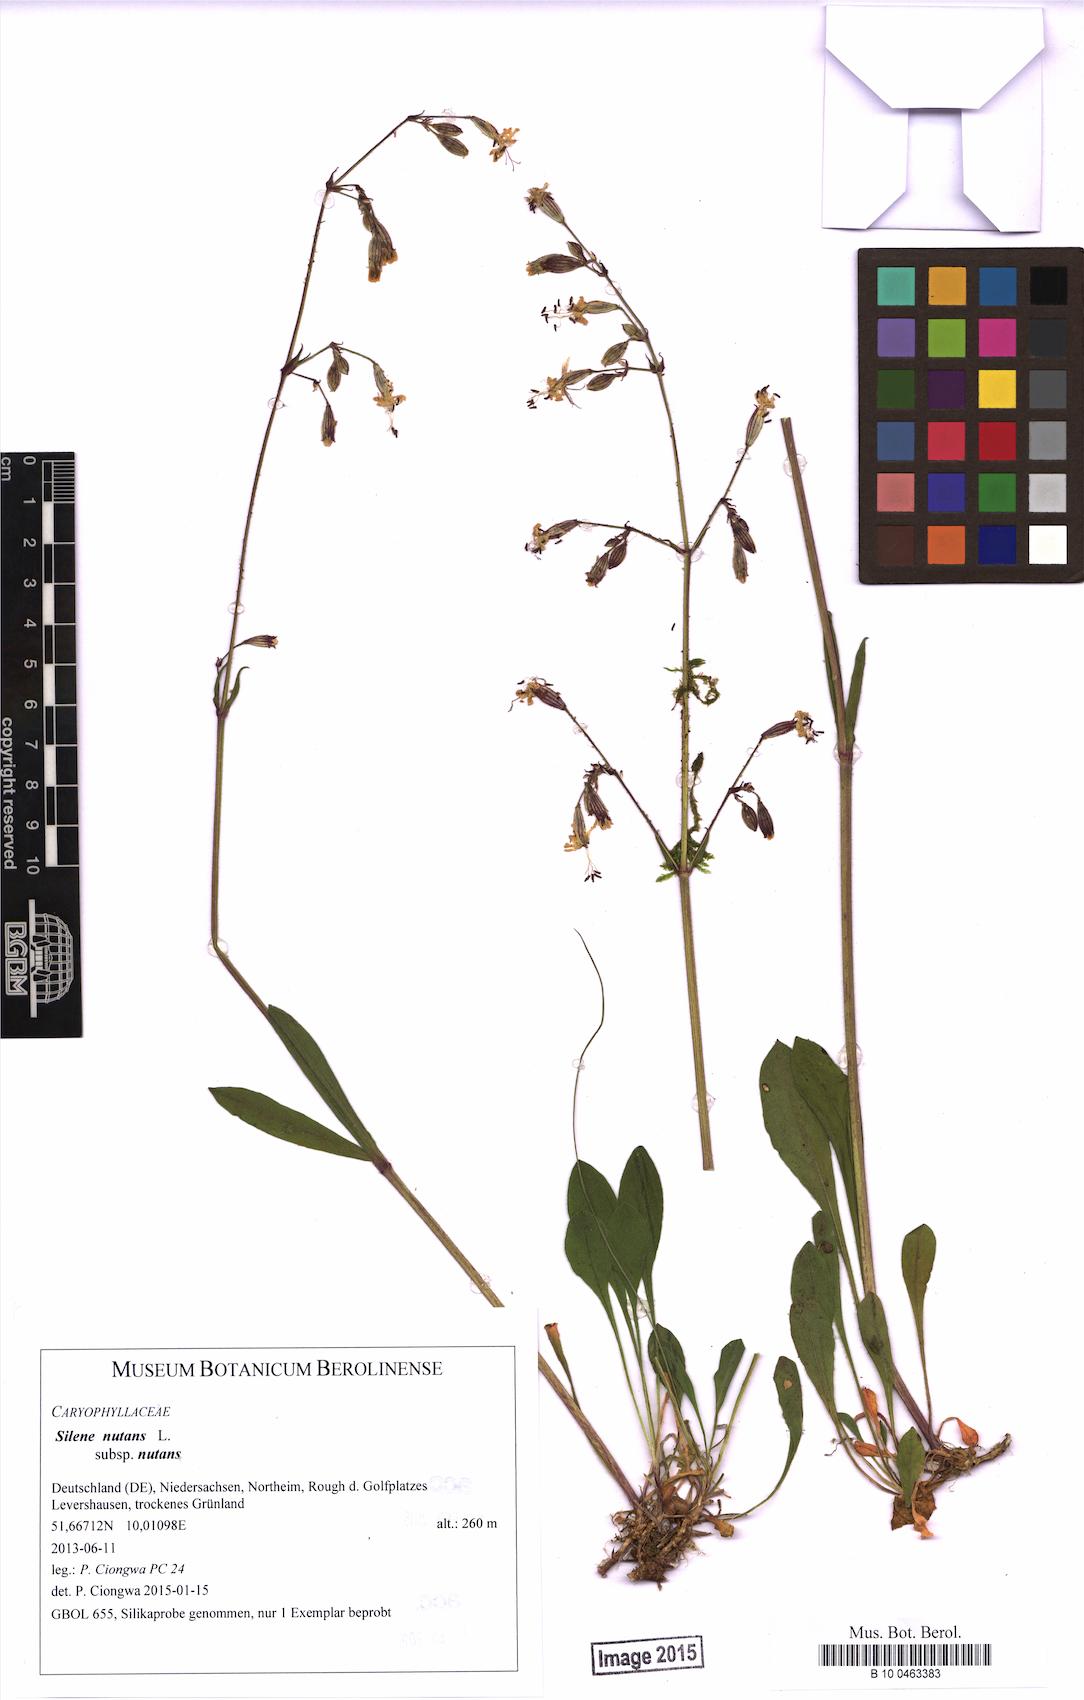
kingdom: Plantae
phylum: Tracheophyta
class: Magnoliopsida
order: Caryophyllales
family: Caryophyllaceae
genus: Silene
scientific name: Silene nutans
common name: Nottingham catchfly
